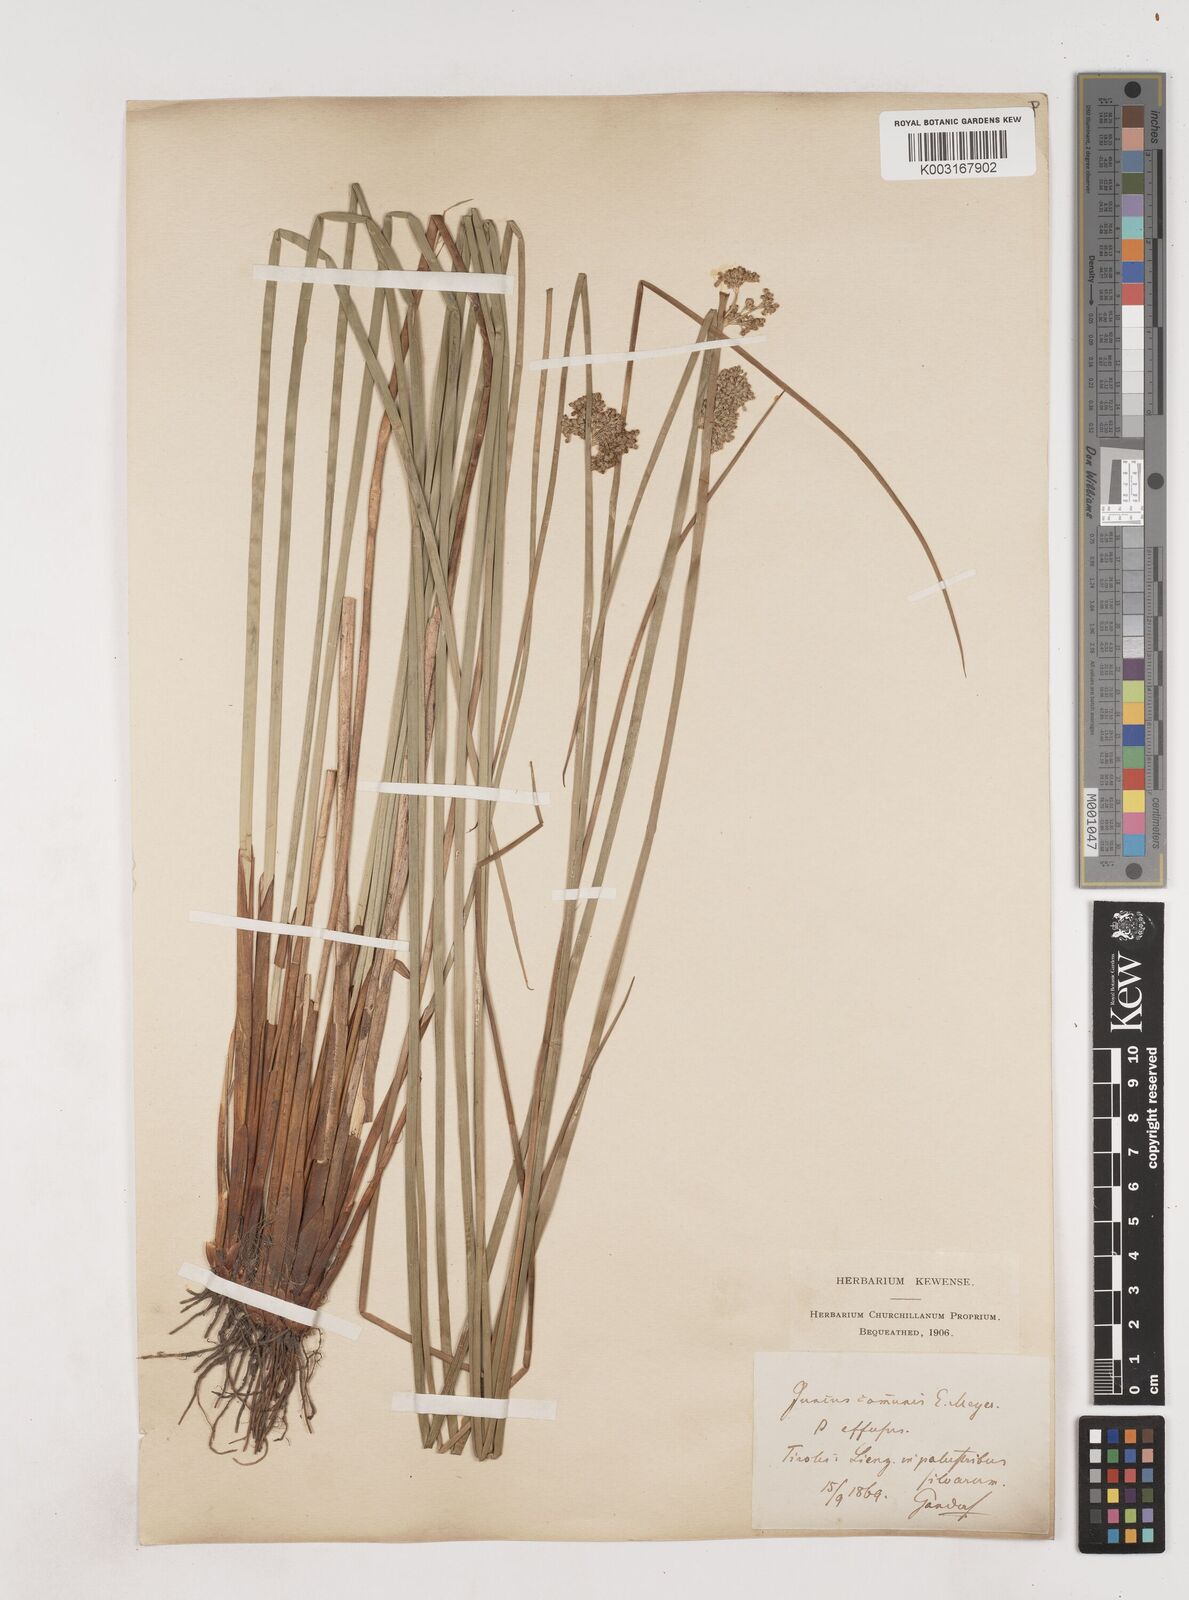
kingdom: Plantae
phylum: Tracheophyta
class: Liliopsida
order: Poales
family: Juncaceae
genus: Juncus
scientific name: Juncus effusus
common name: Soft rush
